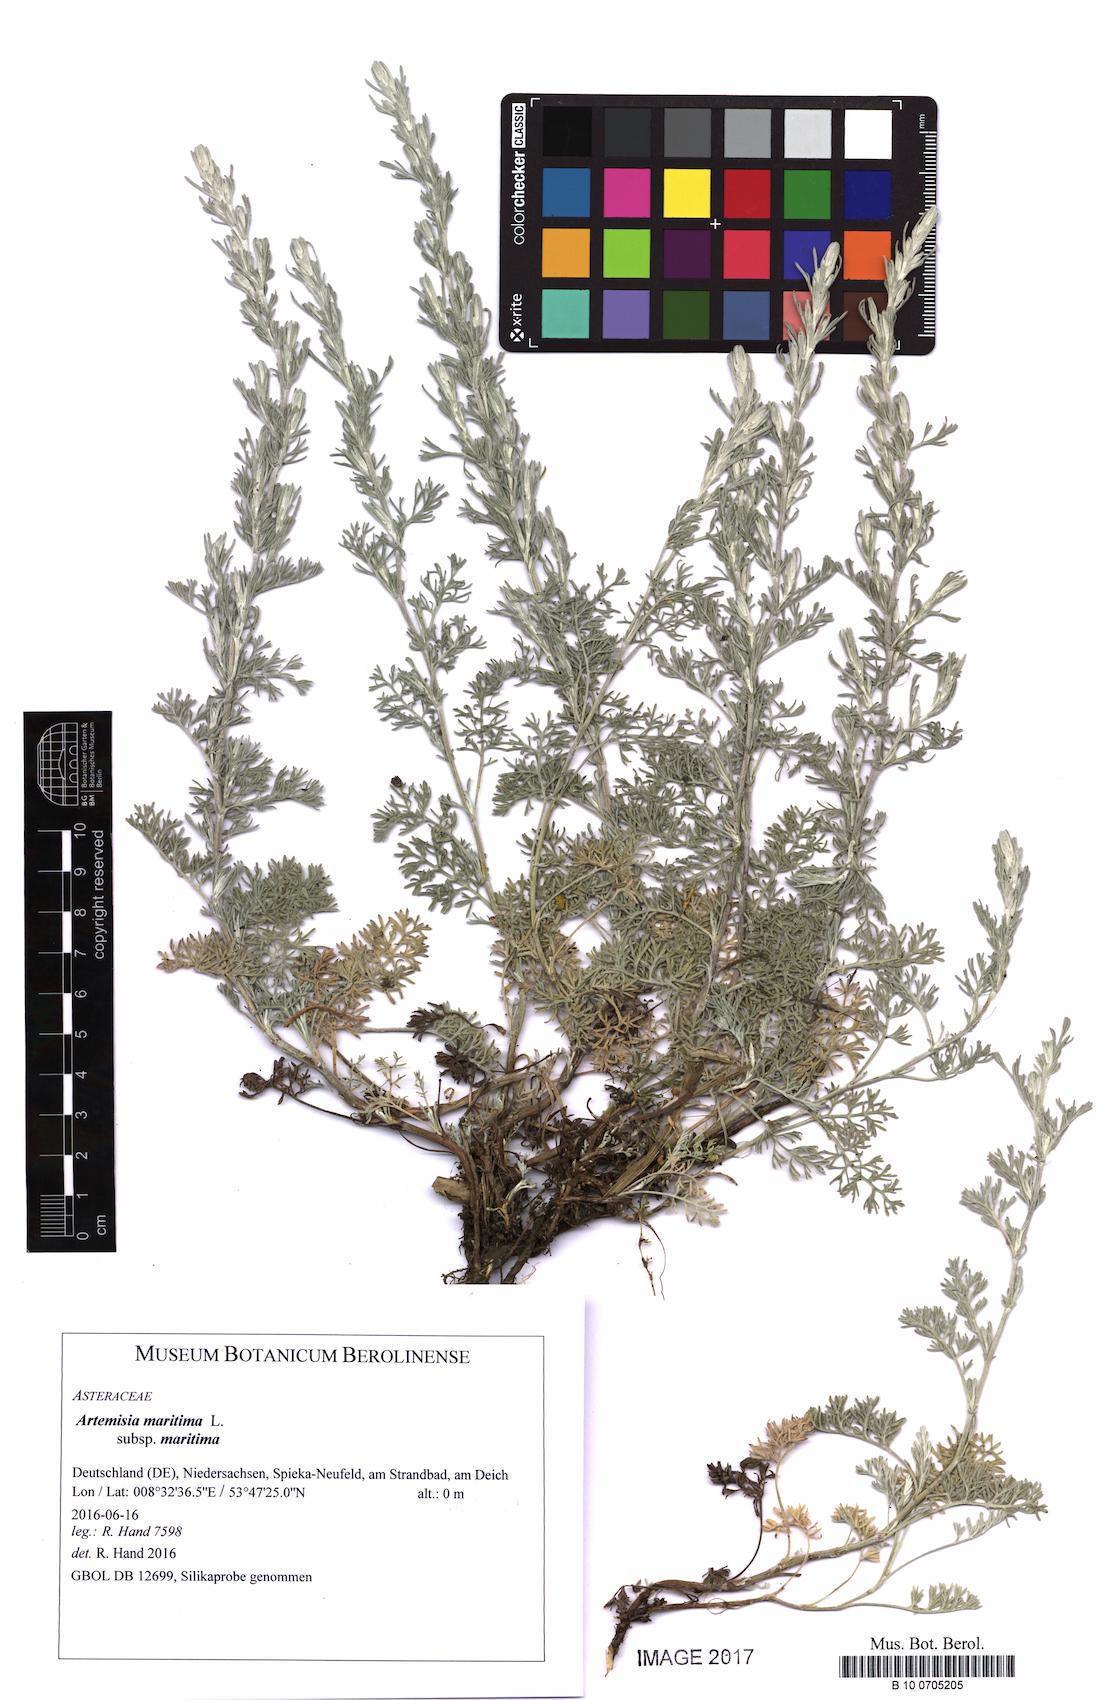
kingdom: Plantae
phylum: Tracheophyta
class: Magnoliopsida
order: Asterales
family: Asteraceae
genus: Artemisia
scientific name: Artemisia maritima
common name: Wormseed
